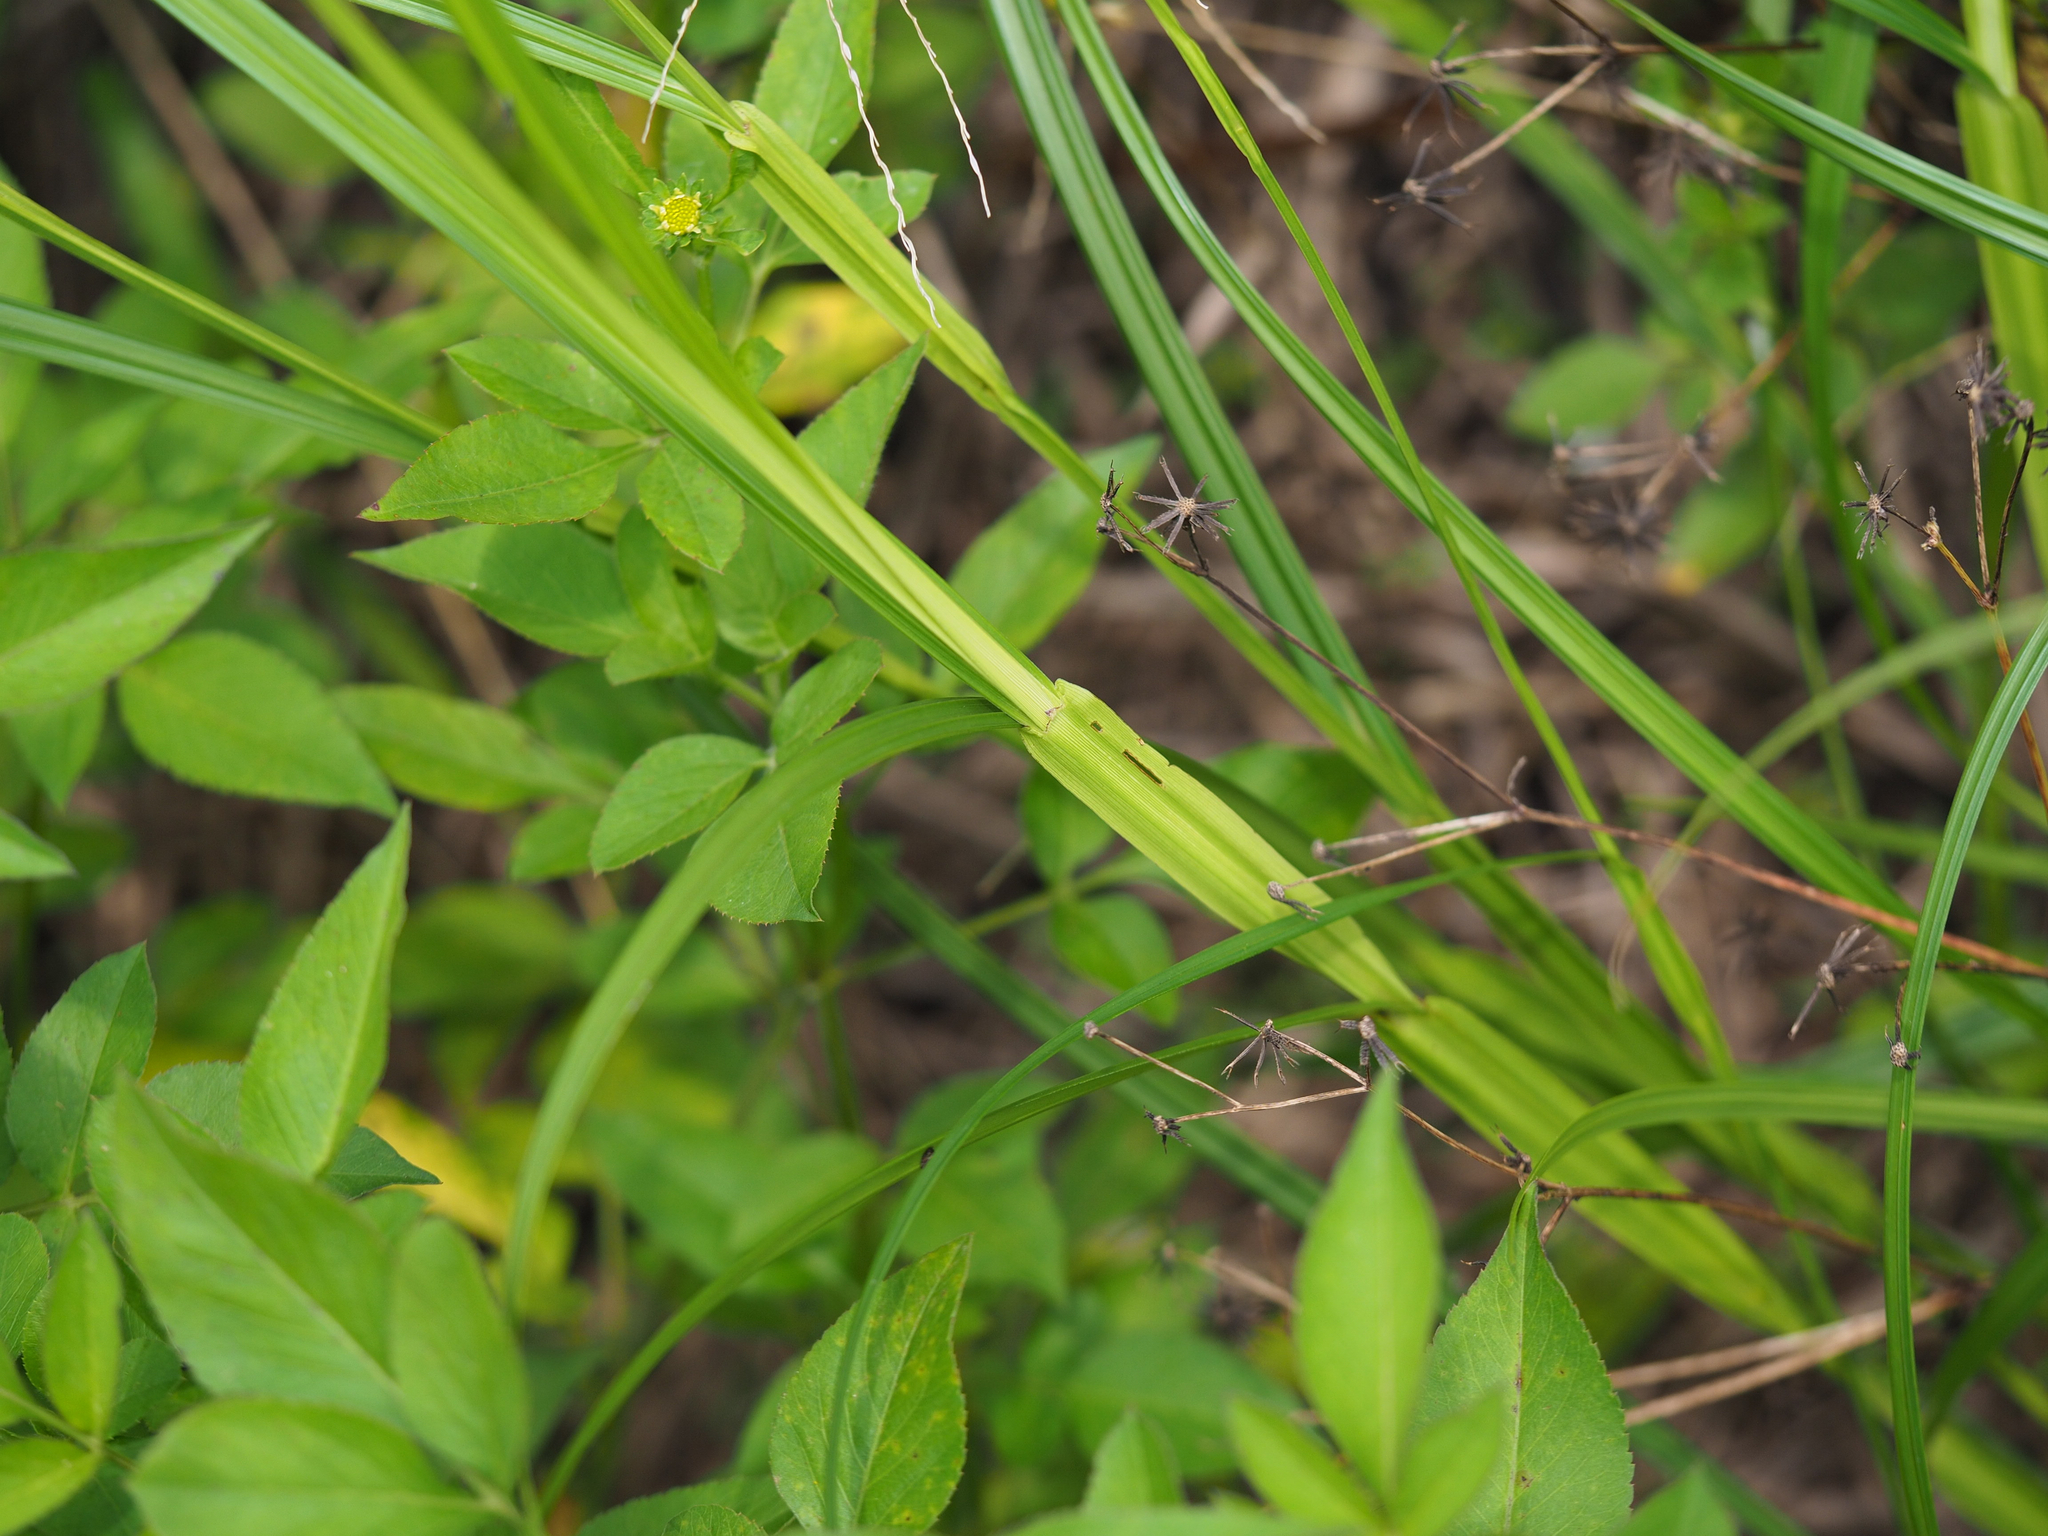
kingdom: Plantae
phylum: Tracheophyta
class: Liliopsida
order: Poales
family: Cyperaceae
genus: Scleria
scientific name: Scleria levis
